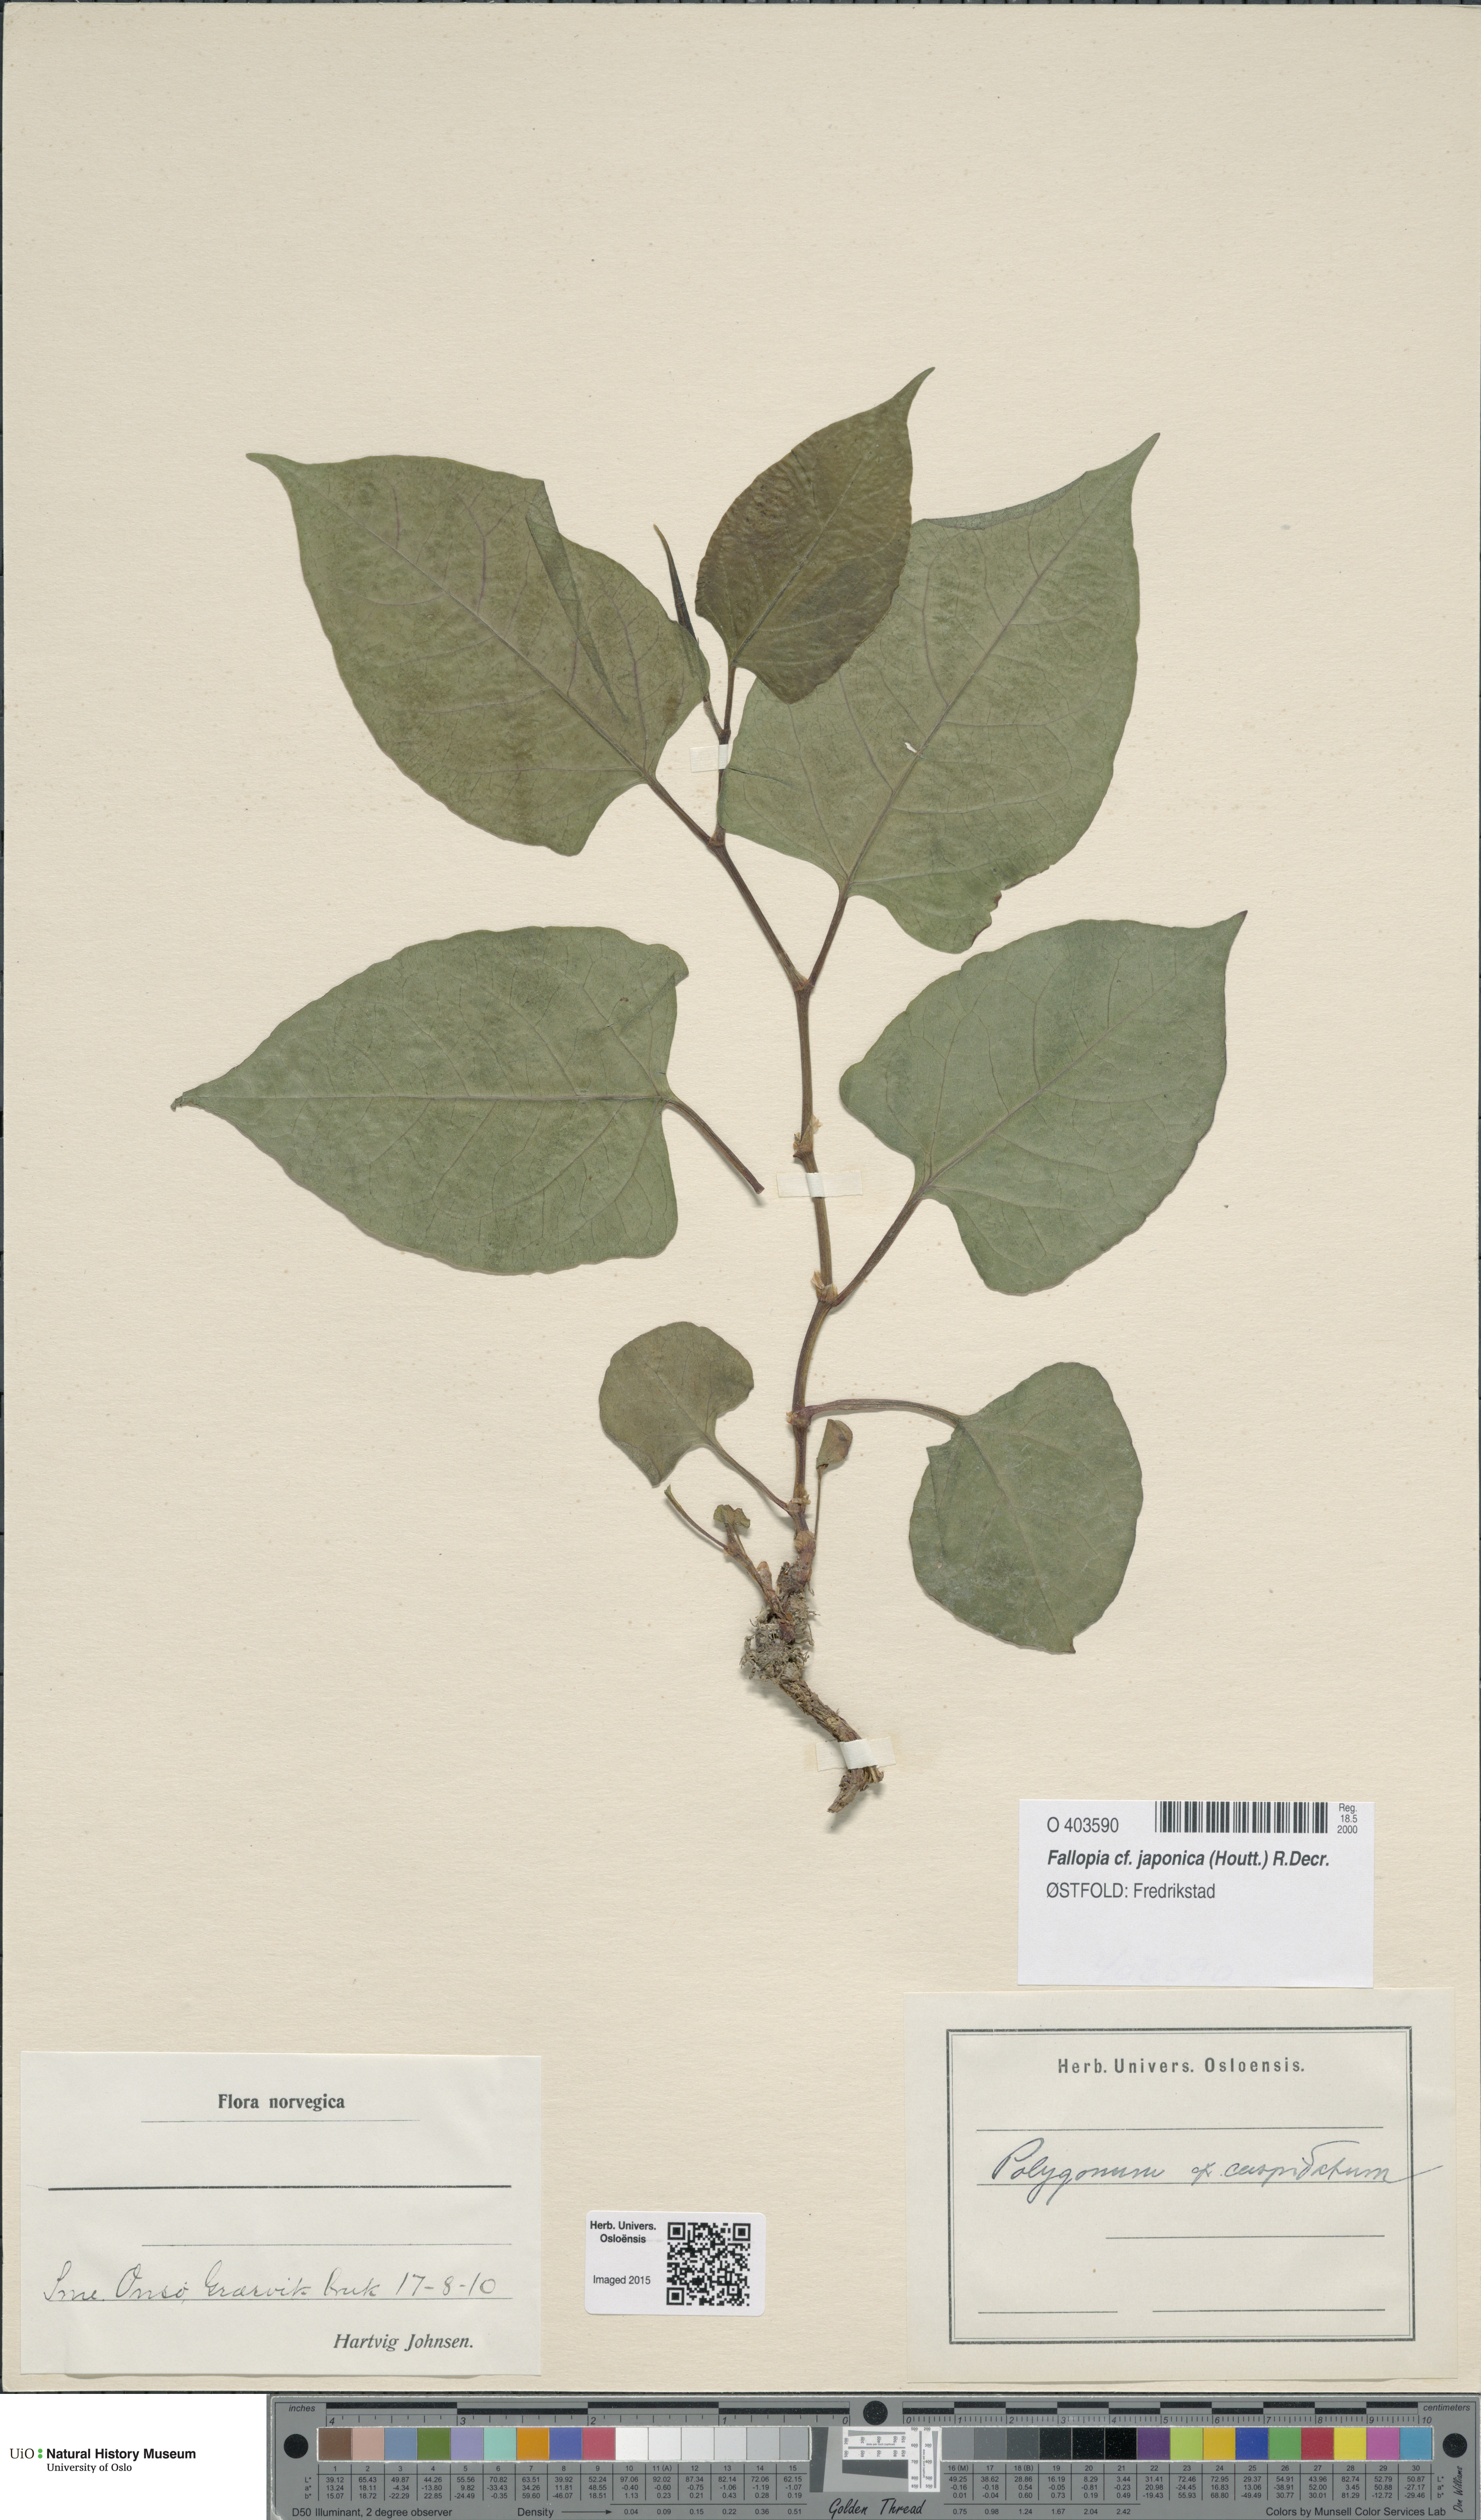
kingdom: Plantae
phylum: Tracheophyta
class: Magnoliopsida
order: Caryophyllales
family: Polygonaceae
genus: Reynoutria
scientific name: Reynoutria japonica
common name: Japanese knotweed
